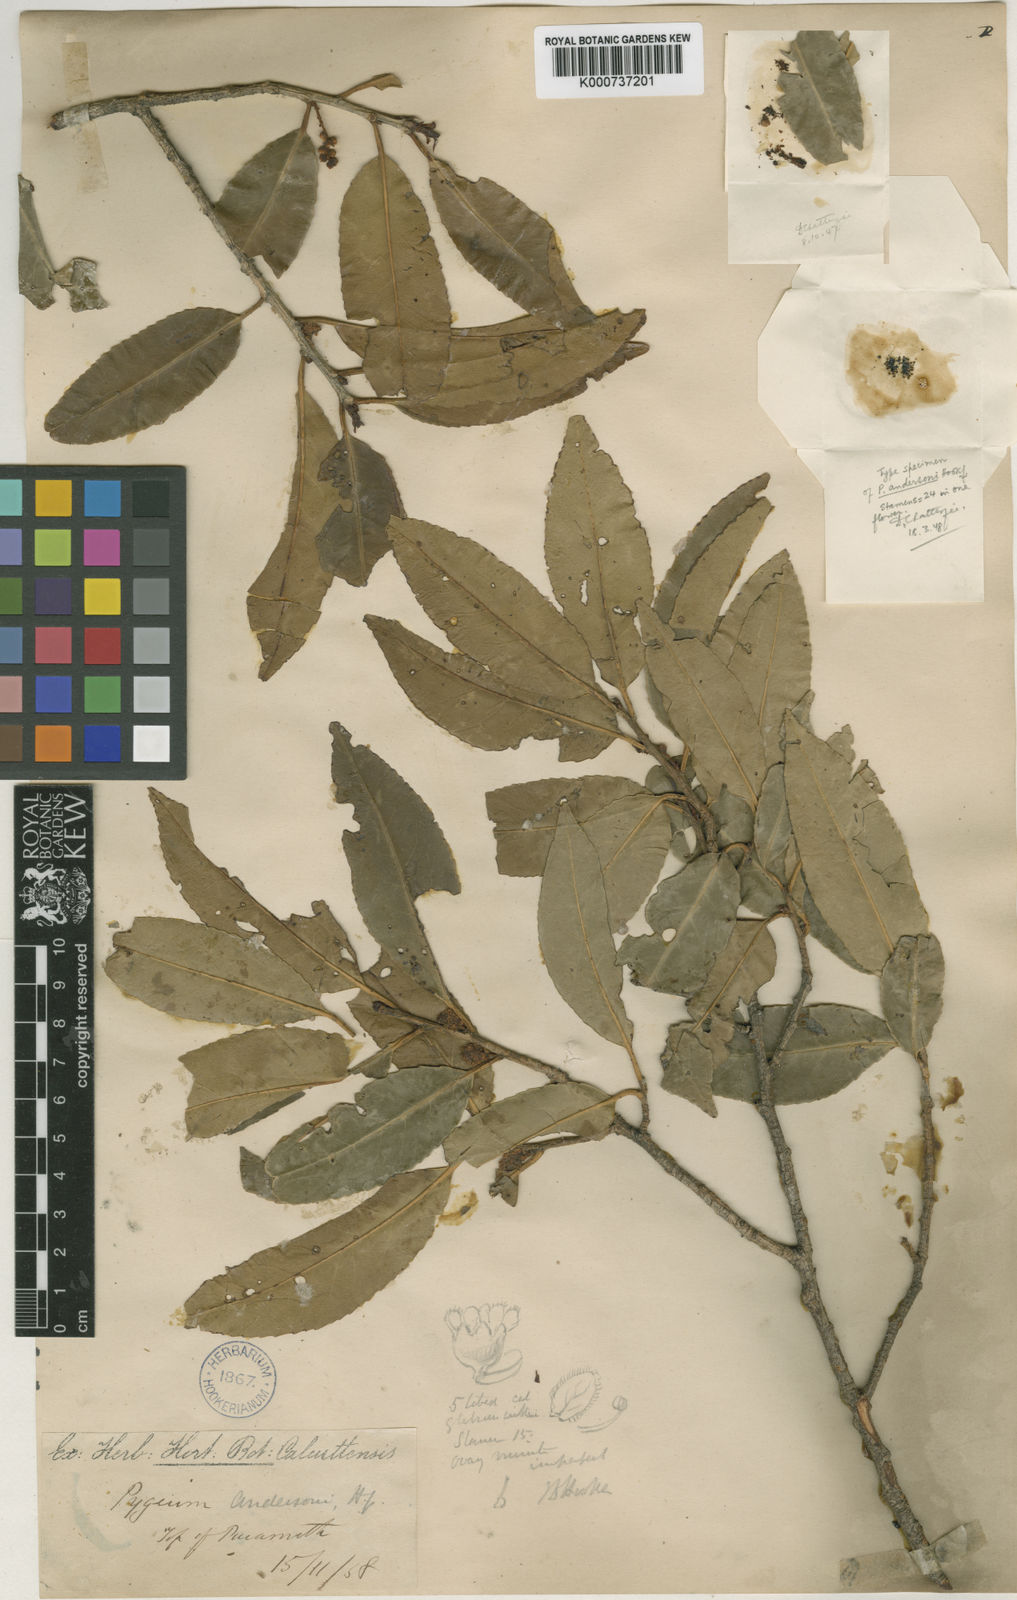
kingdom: Plantae
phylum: Tracheophyta
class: Magnoliopsida
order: Rosales
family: Rosaceae
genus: Prunus
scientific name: Prunus pygeoides
